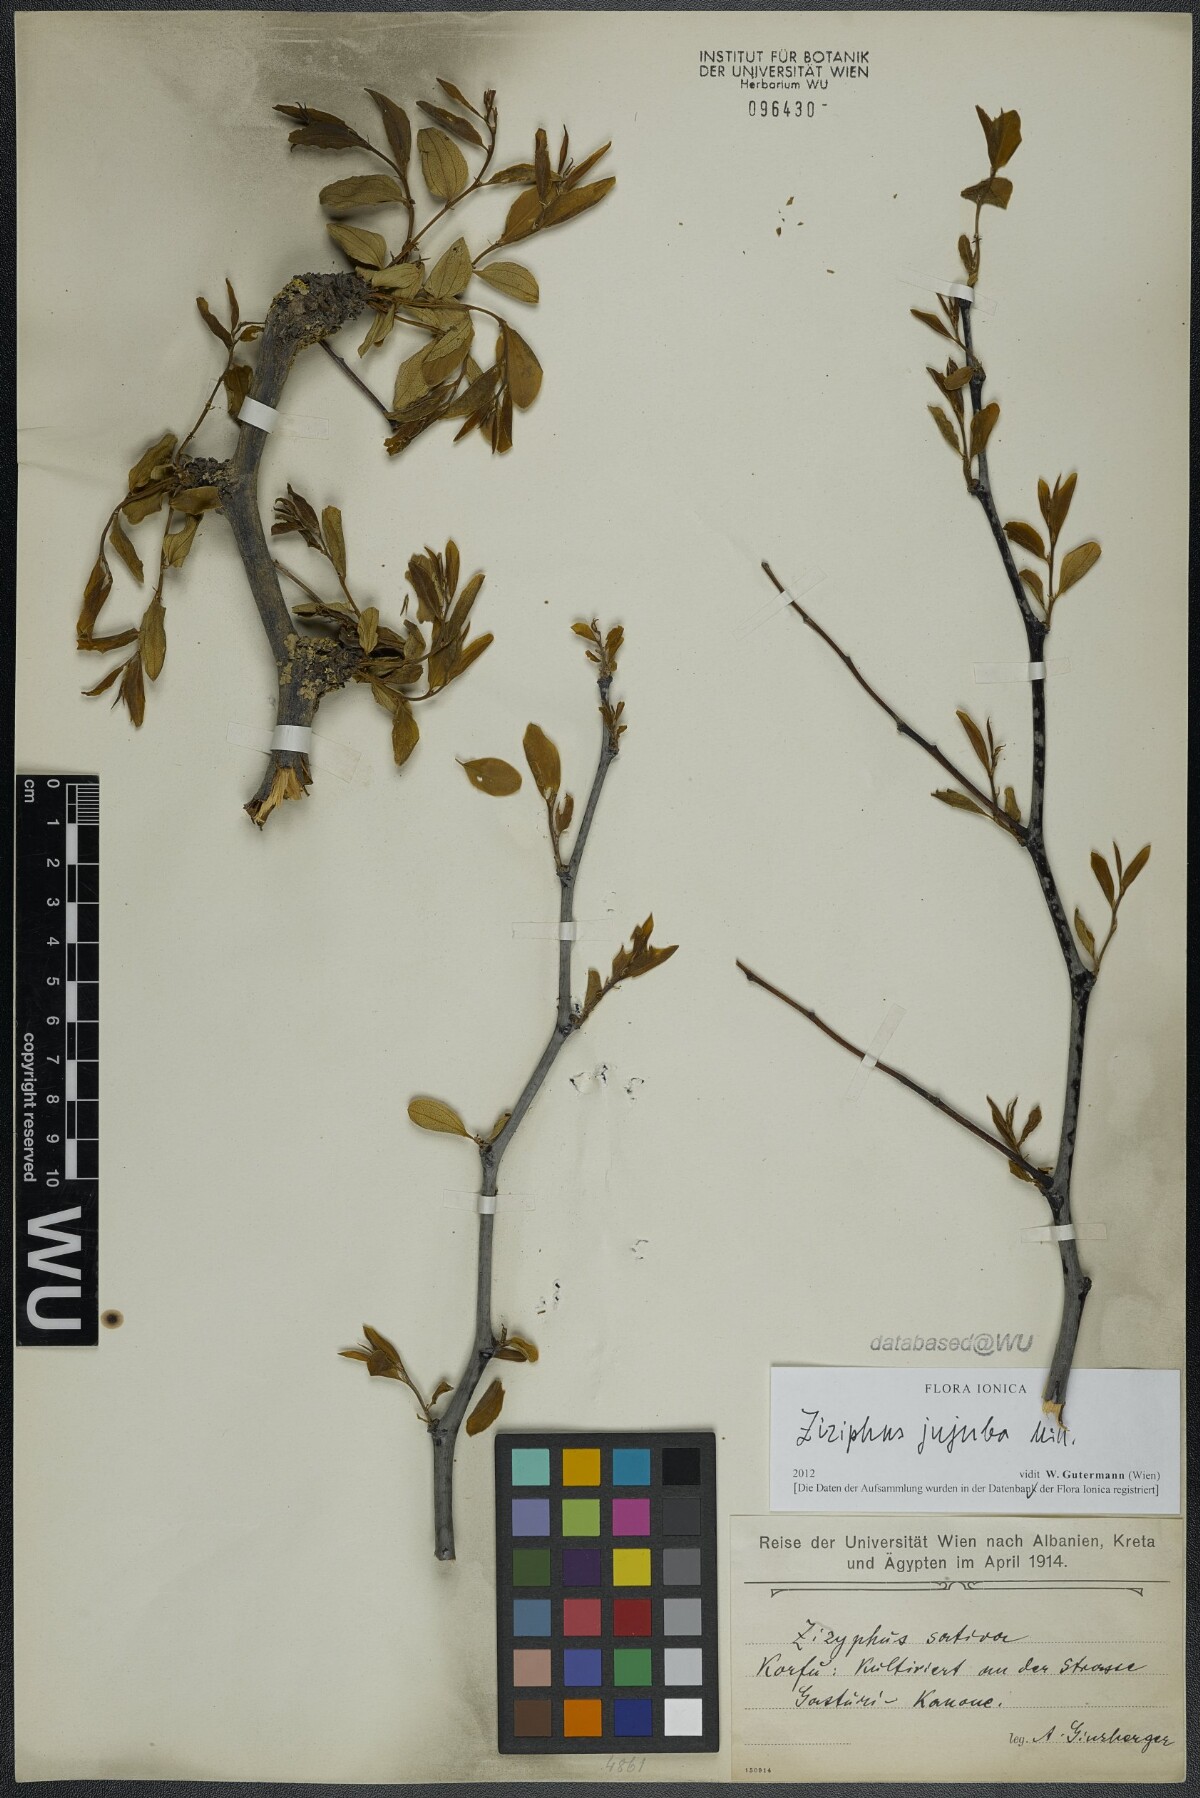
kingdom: Plantae
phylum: Tracheophyta
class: Magnoliopsida
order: Rosales
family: Rhamnaceae
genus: Ziziphus
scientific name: Ziziphus jujuba
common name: Jujube red date
